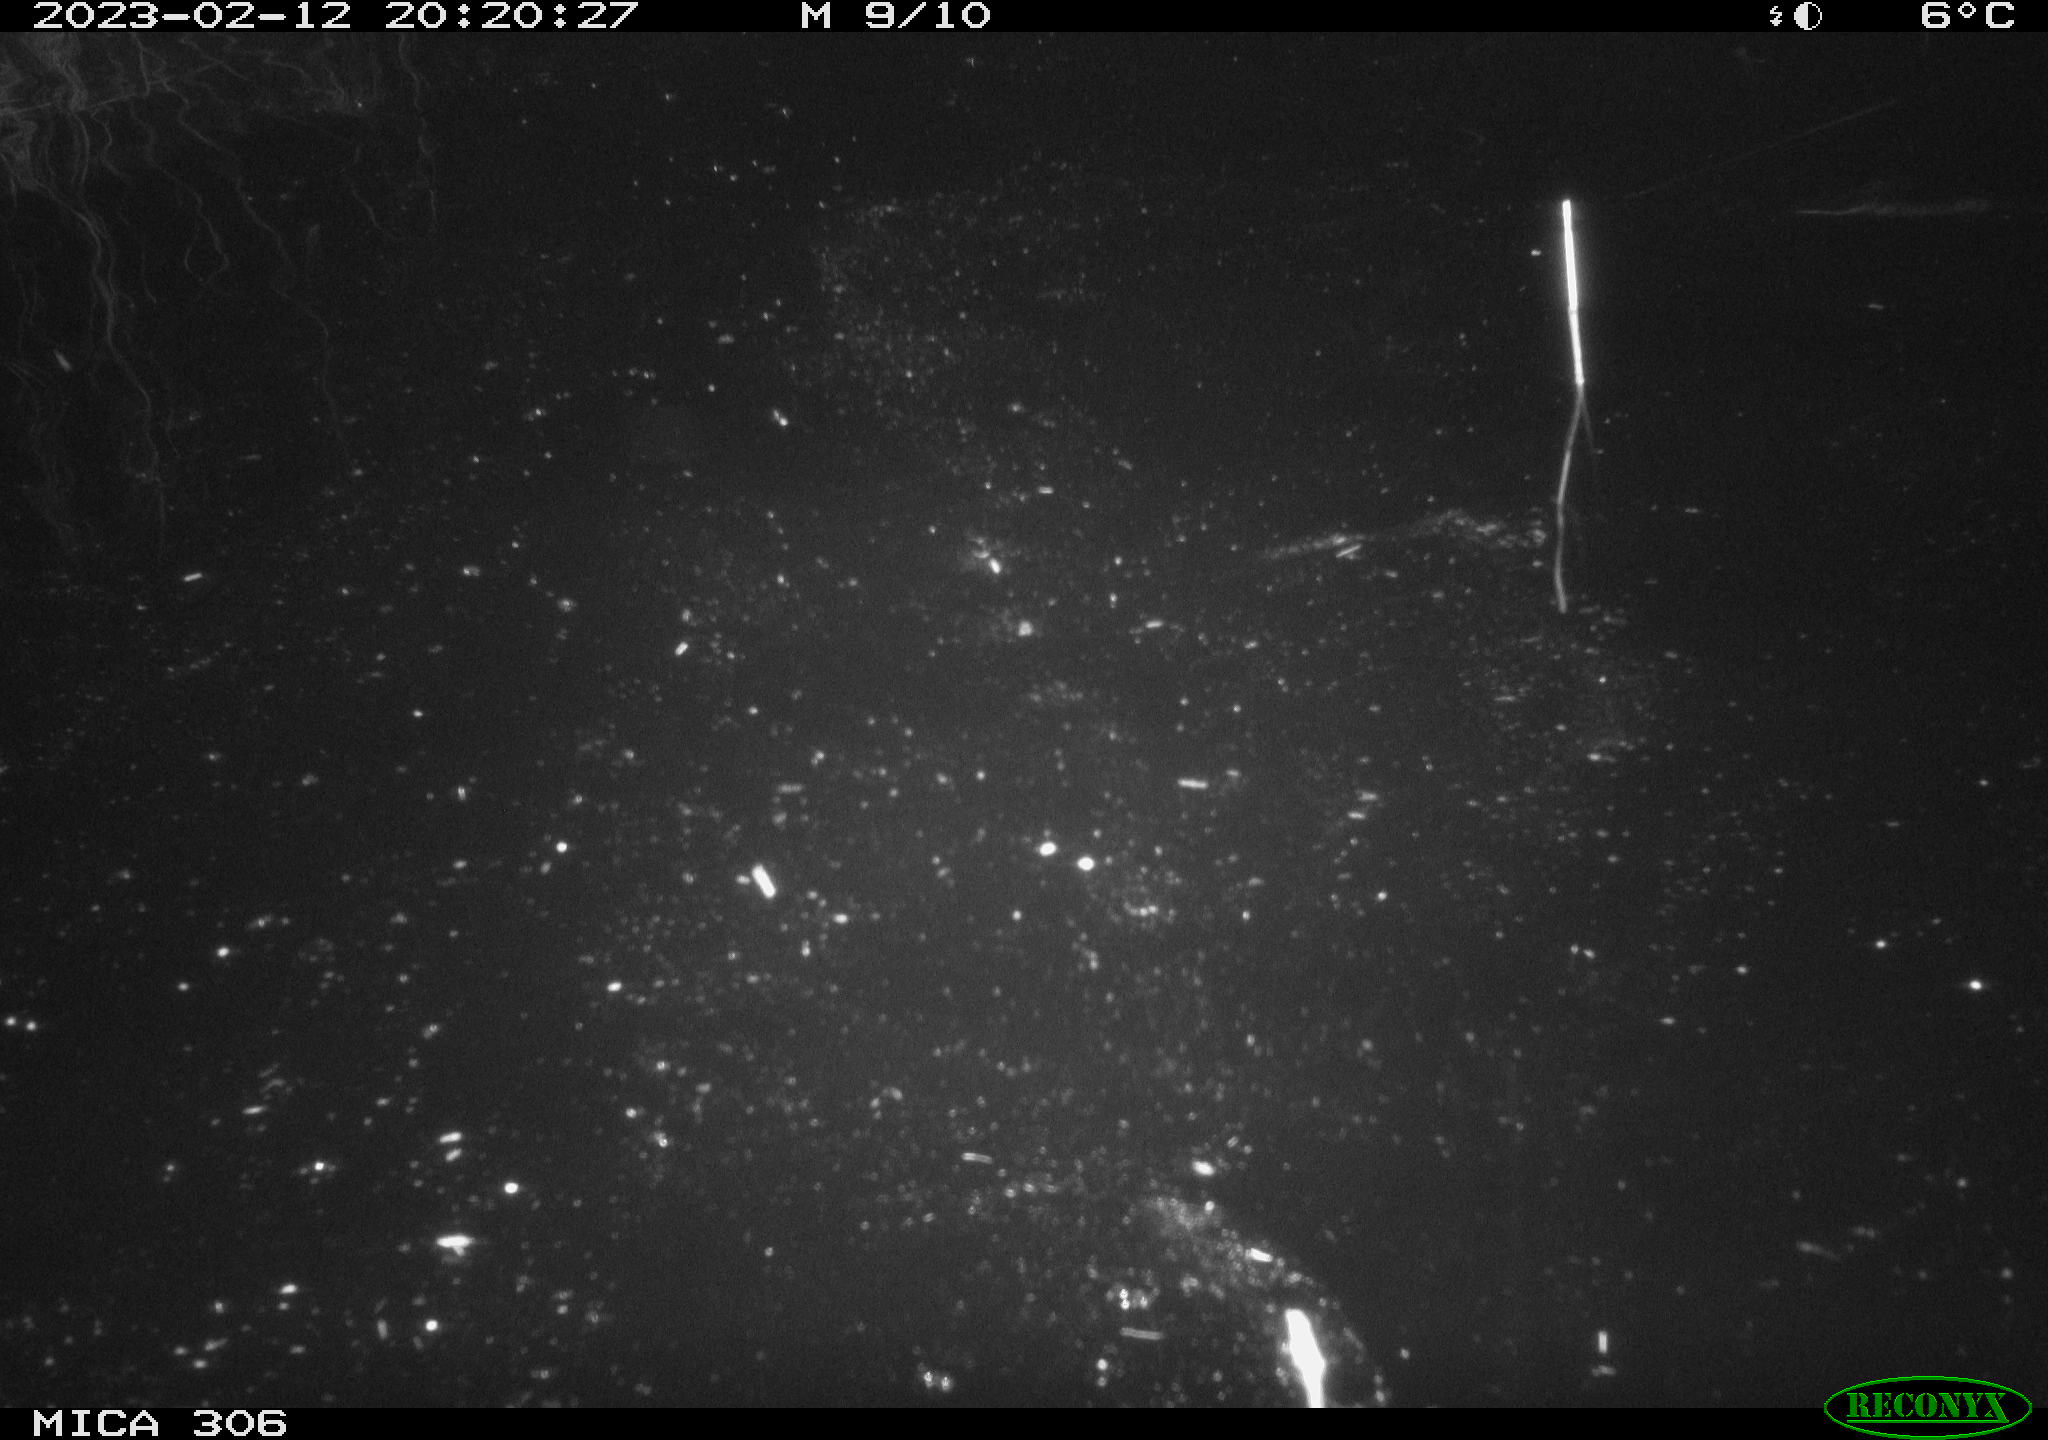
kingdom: Animalia
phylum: Chordata
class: Mammalia
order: Rodentia
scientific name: Rodentia
